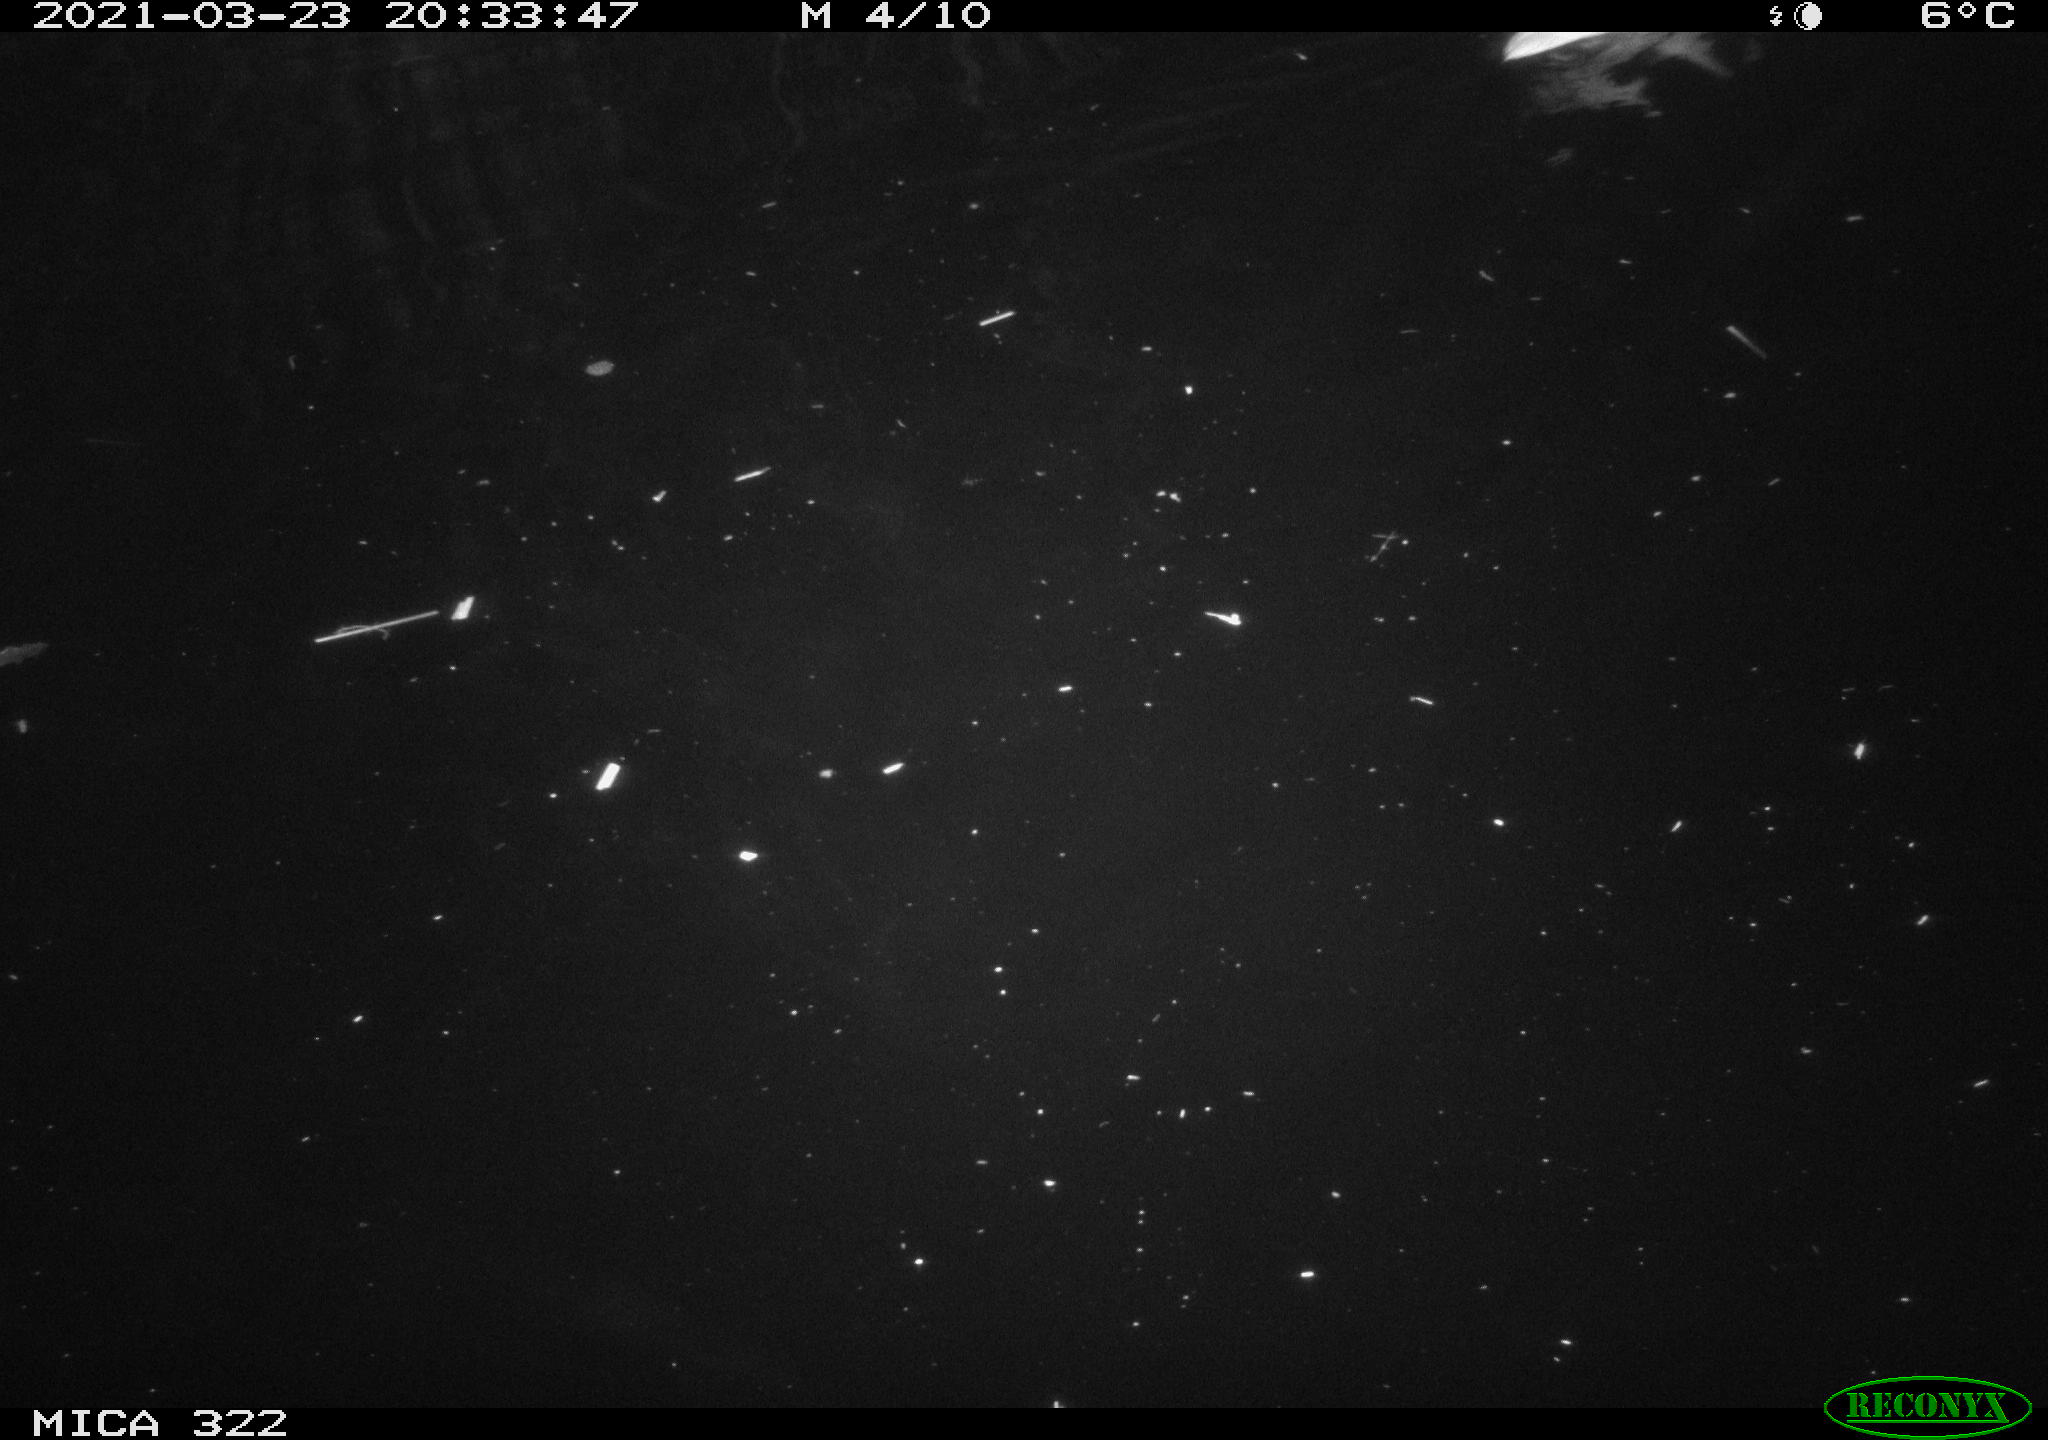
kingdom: Animalia
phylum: Chordata
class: Aves
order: Gruiformes
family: Rallidae
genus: Gallinula
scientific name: Gallinula chloropus
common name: Common moorhen
